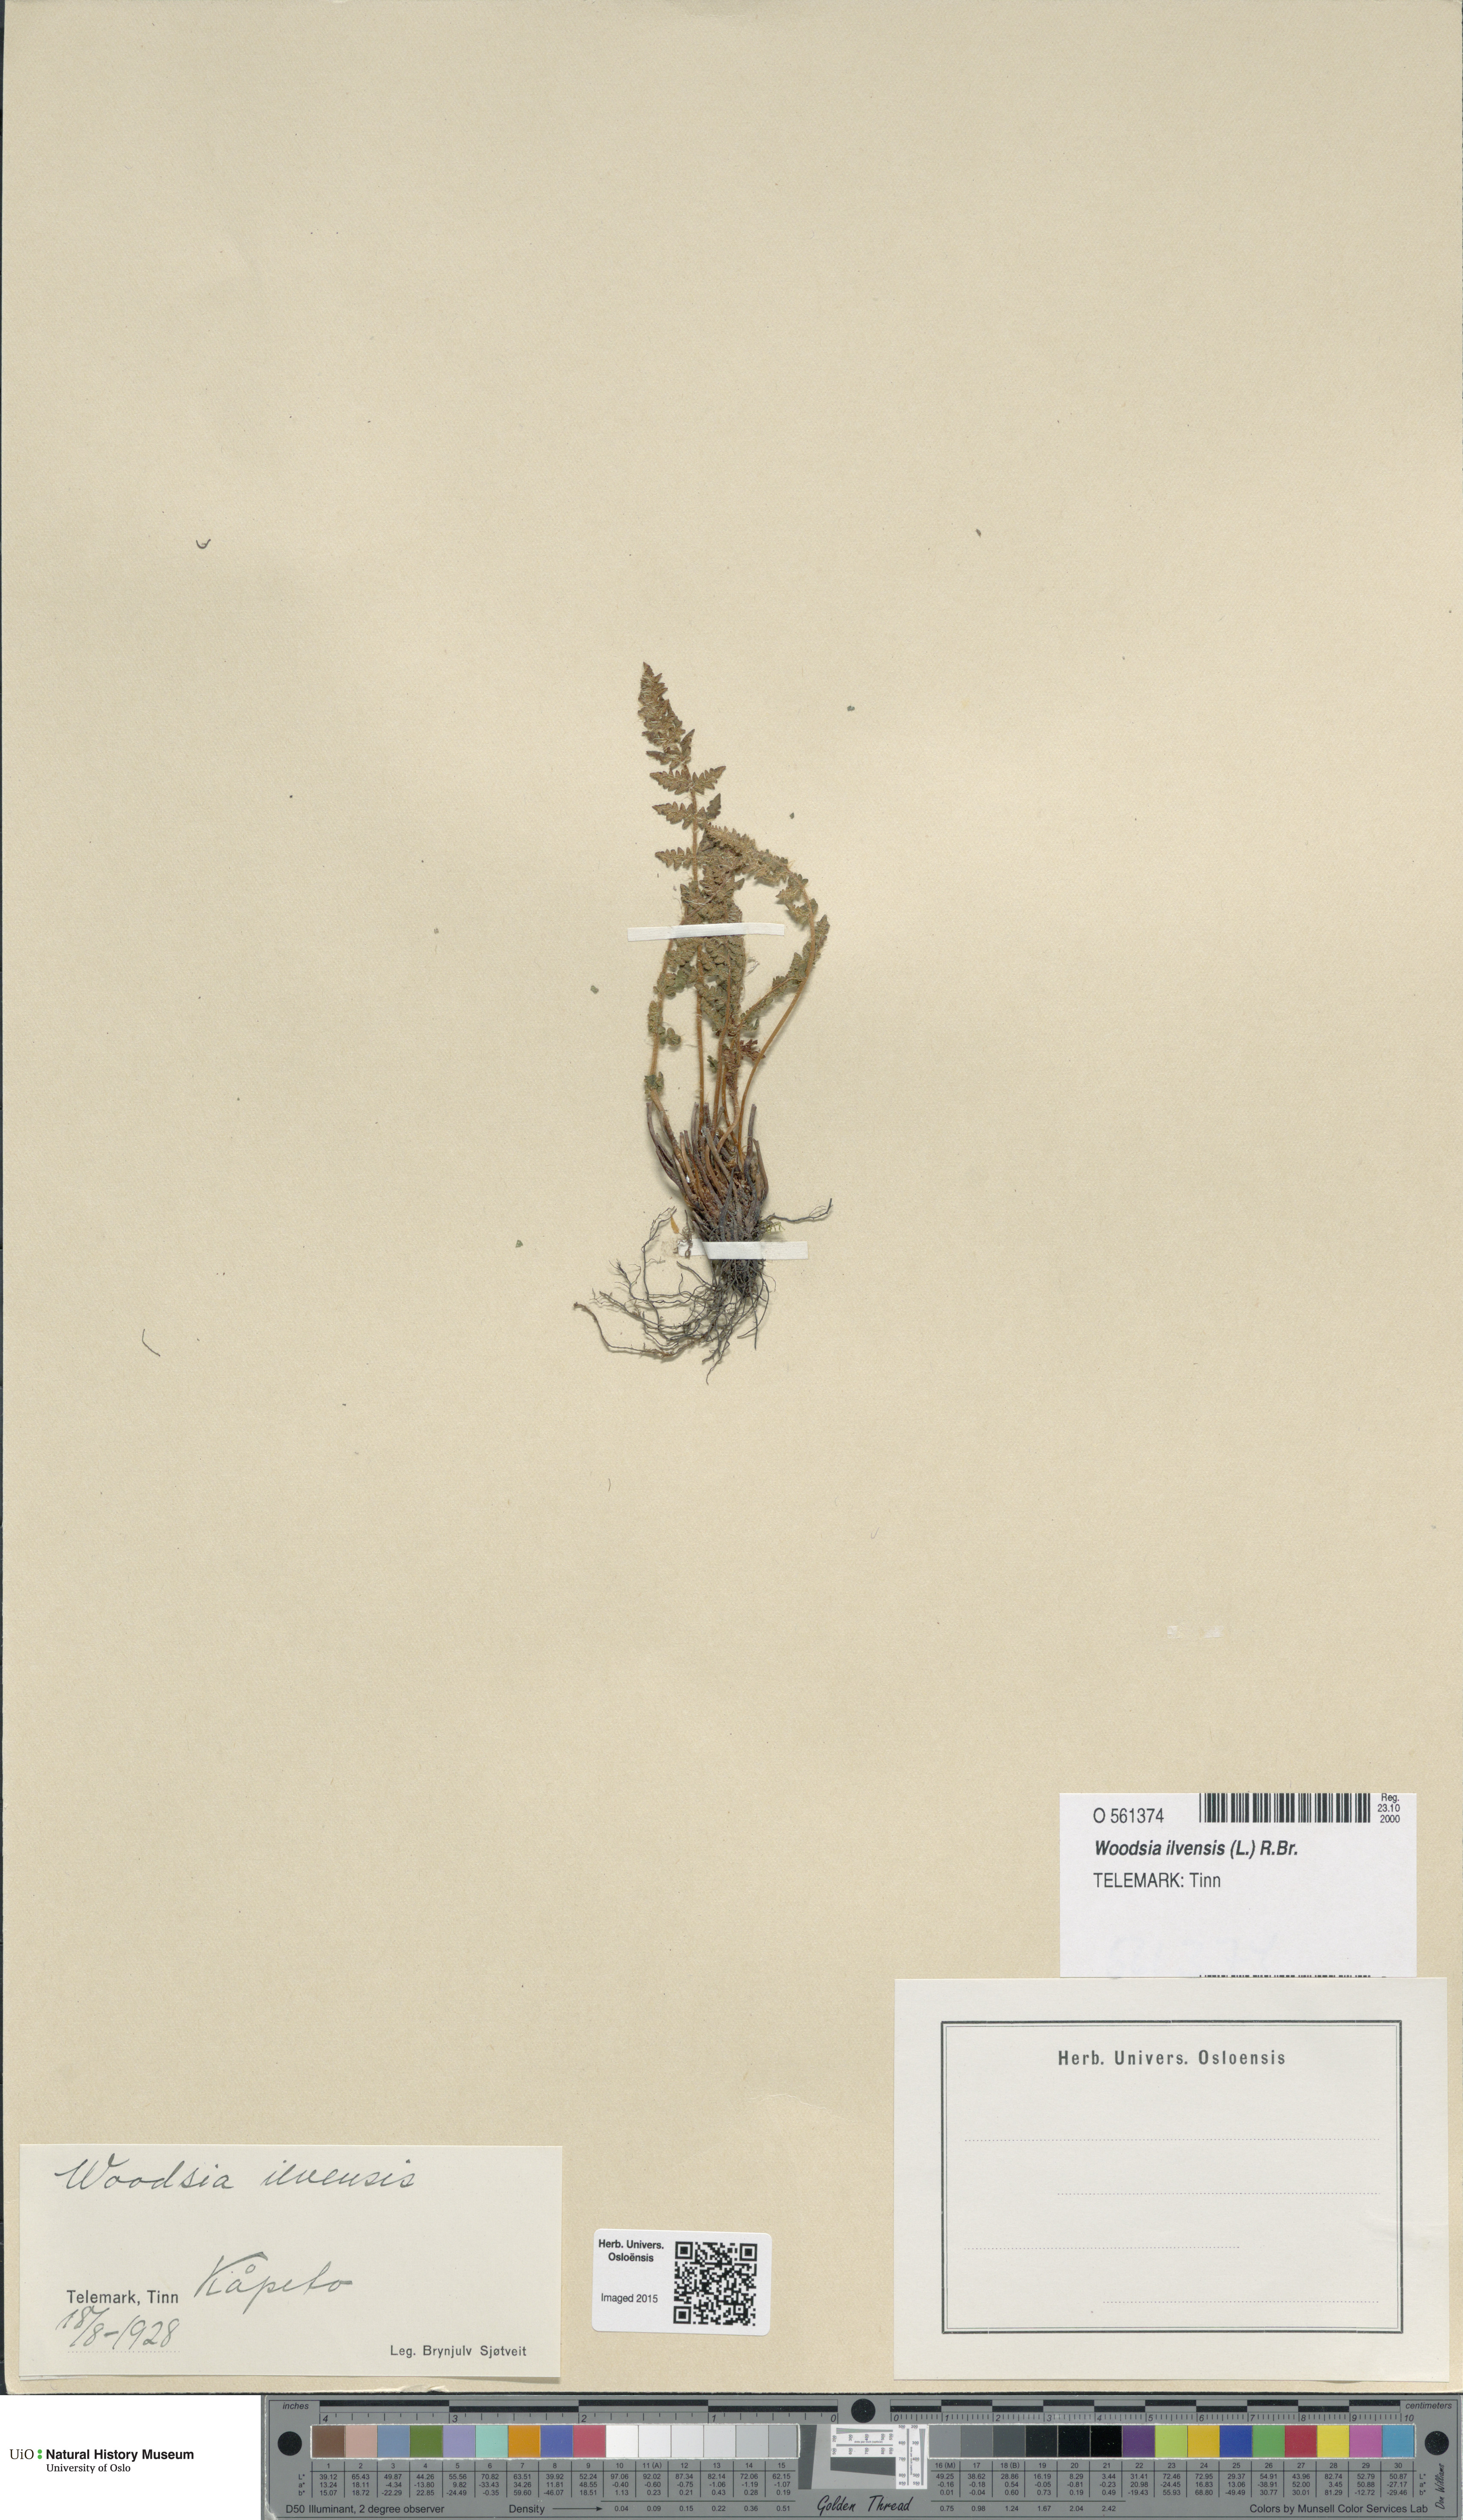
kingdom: Plantae
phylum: Tracheophyta
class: Polypodiopsida
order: Polypodiales
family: Woodsiaceae
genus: Woodsia
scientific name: Woodsia ilvensis
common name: Fragrant woodsia
